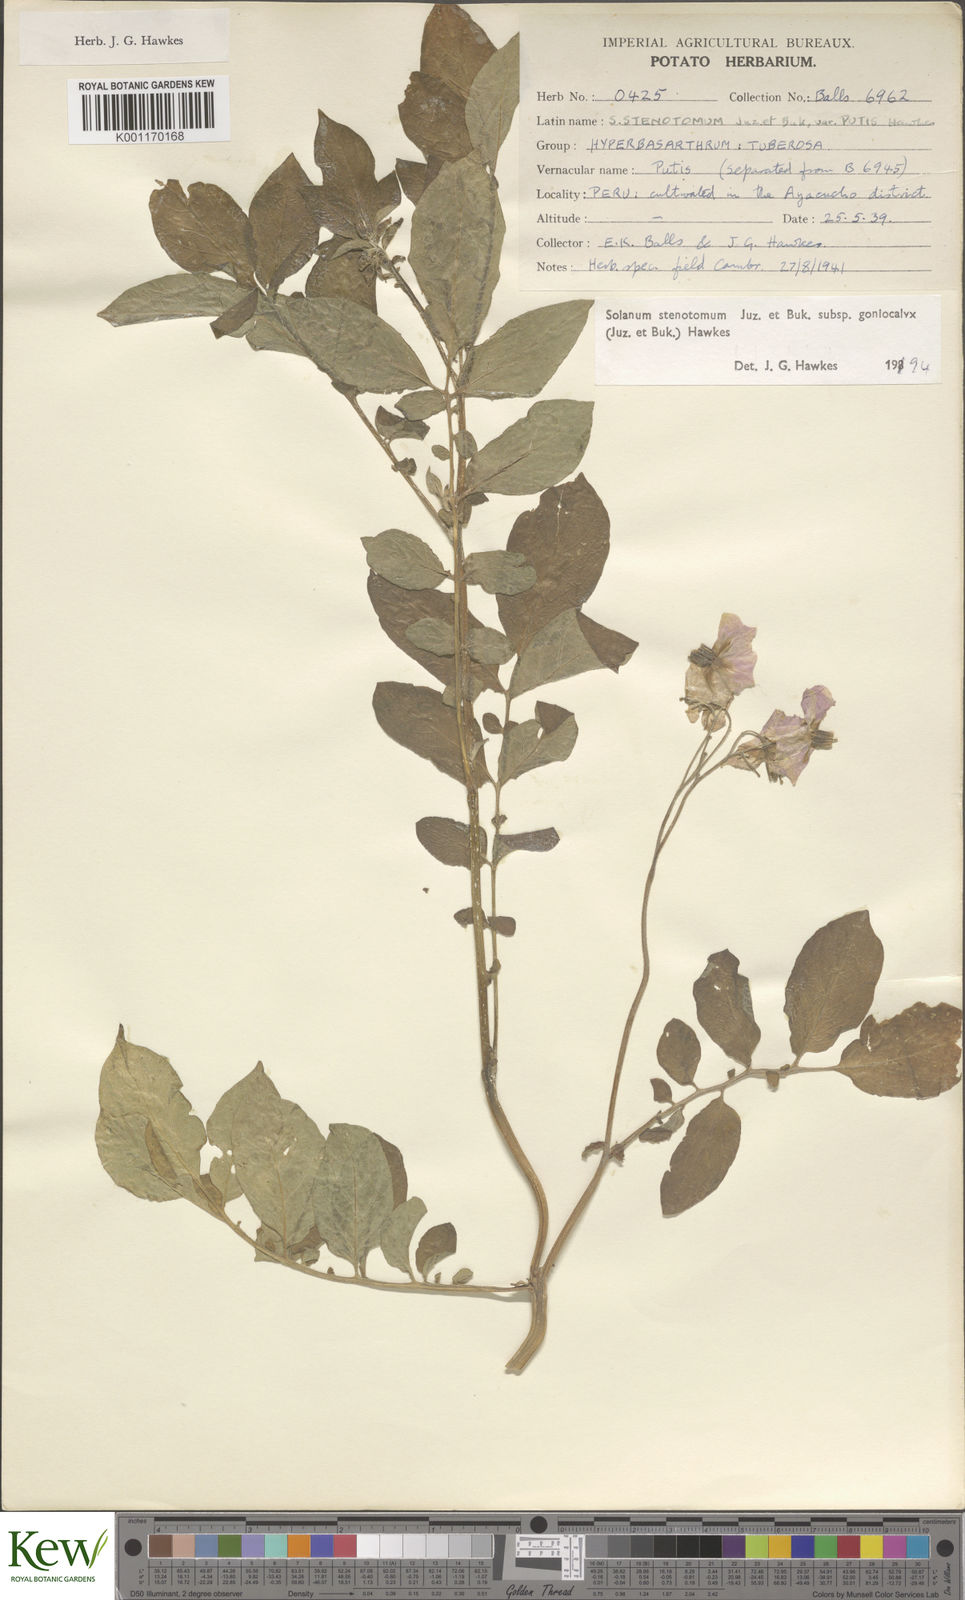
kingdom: Plantae
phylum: Tracheophyta
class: Magnoliopsida
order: Solanales
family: Solanaceae
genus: Solanum
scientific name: Solanum tuberosum
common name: Potato
